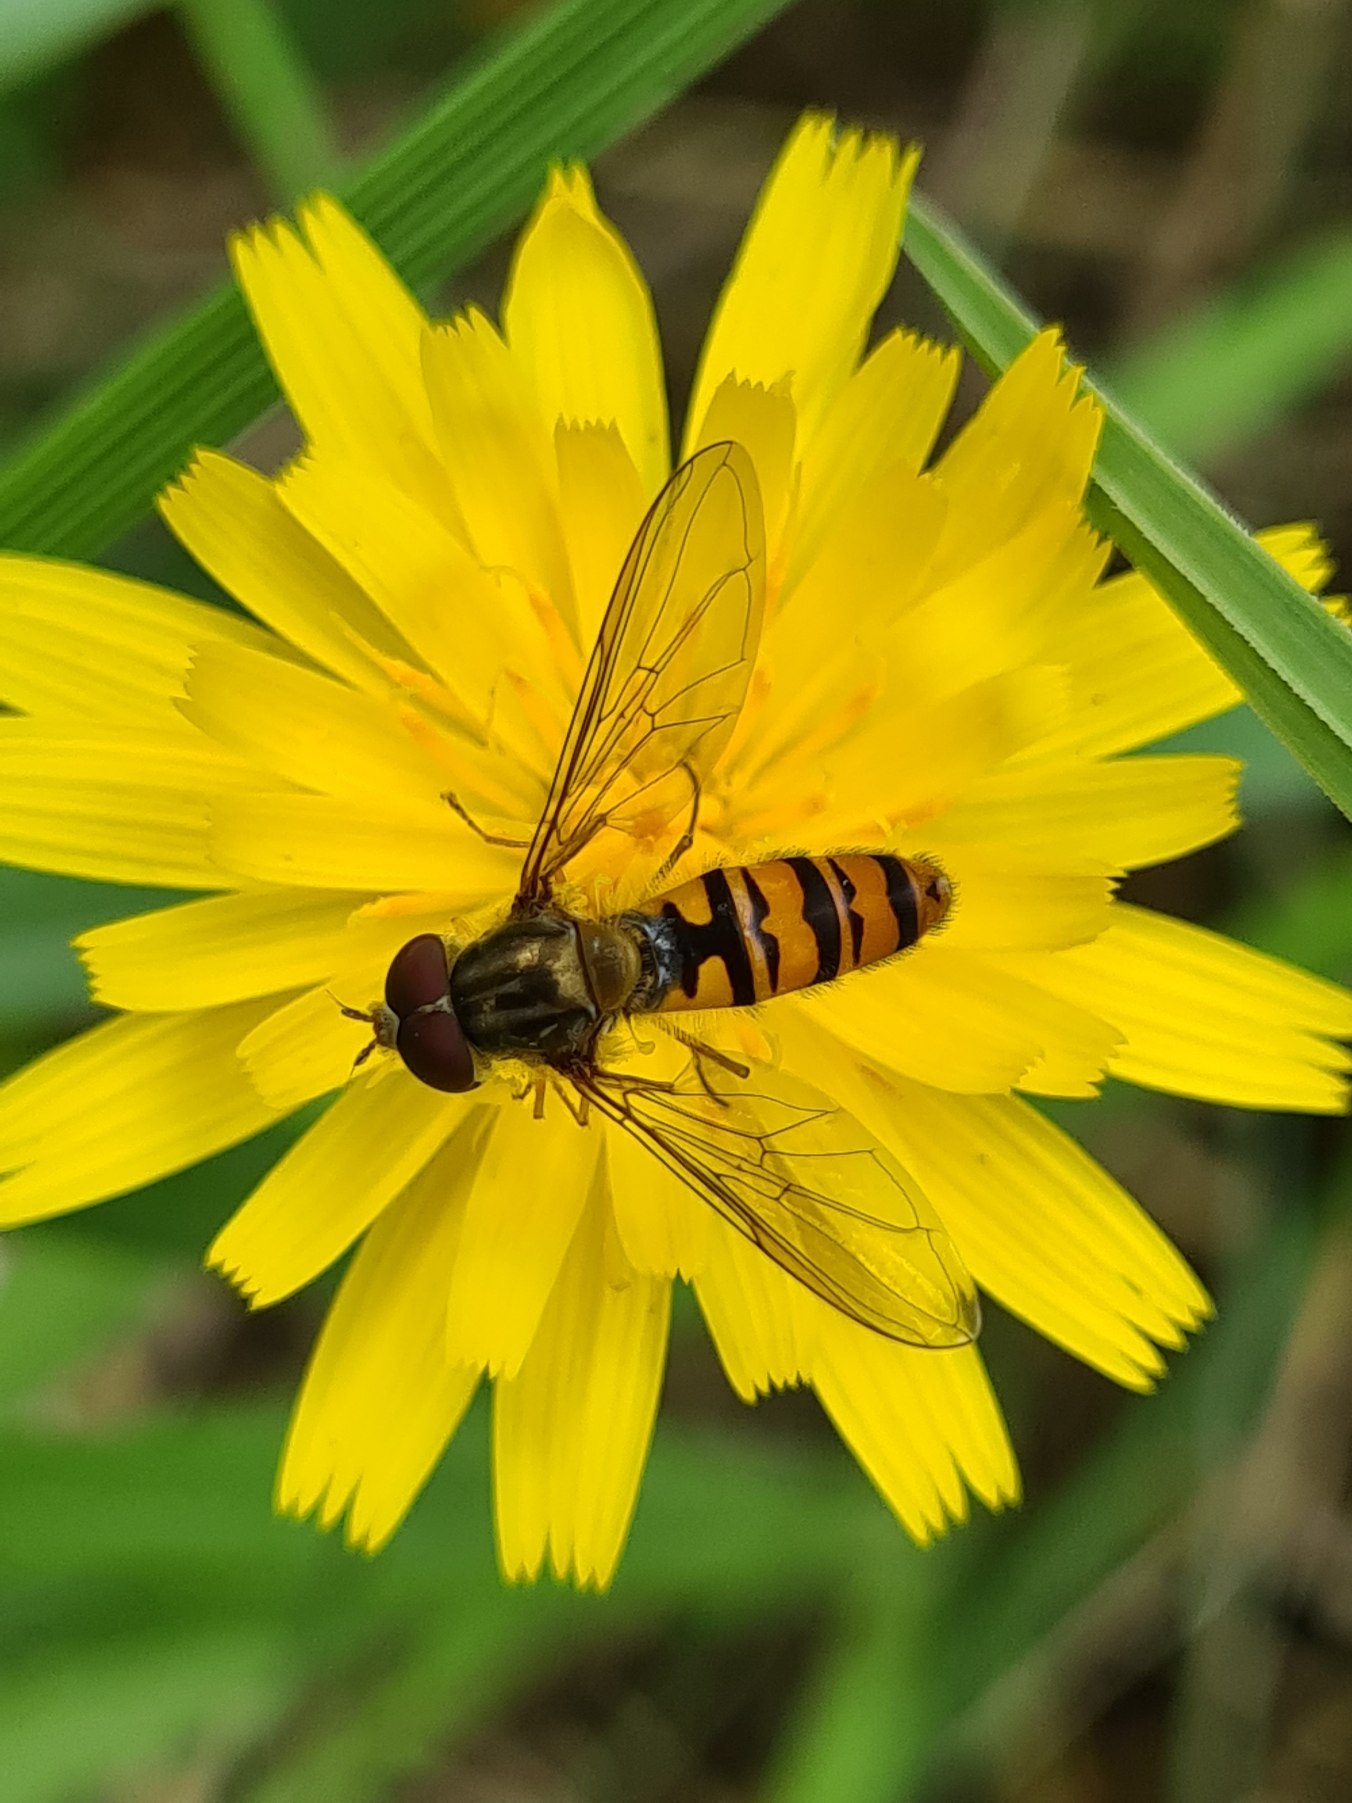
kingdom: Animalia
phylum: Arthropoda
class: Insecta
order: Diptera
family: Syrphidae
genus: Episyrphus
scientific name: Episyrphus balteatus
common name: Dobbeltbåndet svirreflue
